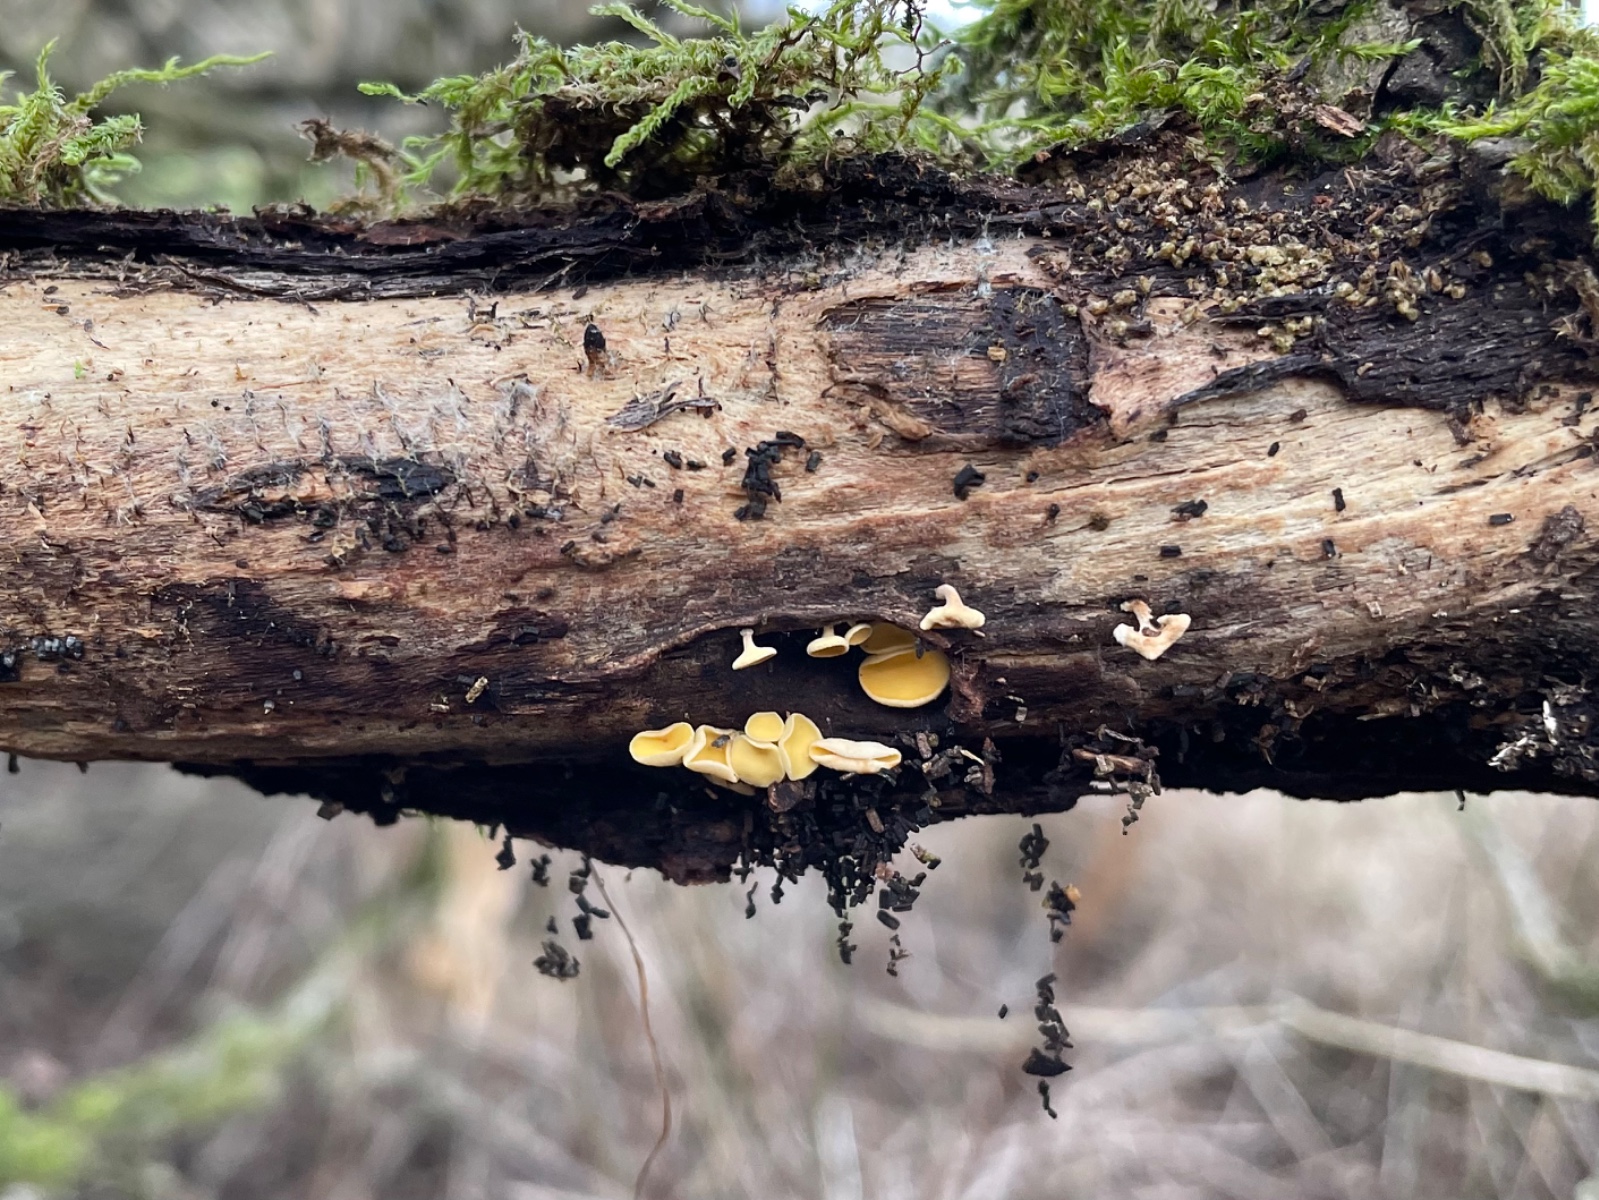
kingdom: Fungi
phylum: Ascomycota
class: Leotiomycetes
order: Helotiales
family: Helotiaceae
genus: Hymenoscyphus
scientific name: Hymenoscyphus
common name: stilkskive
